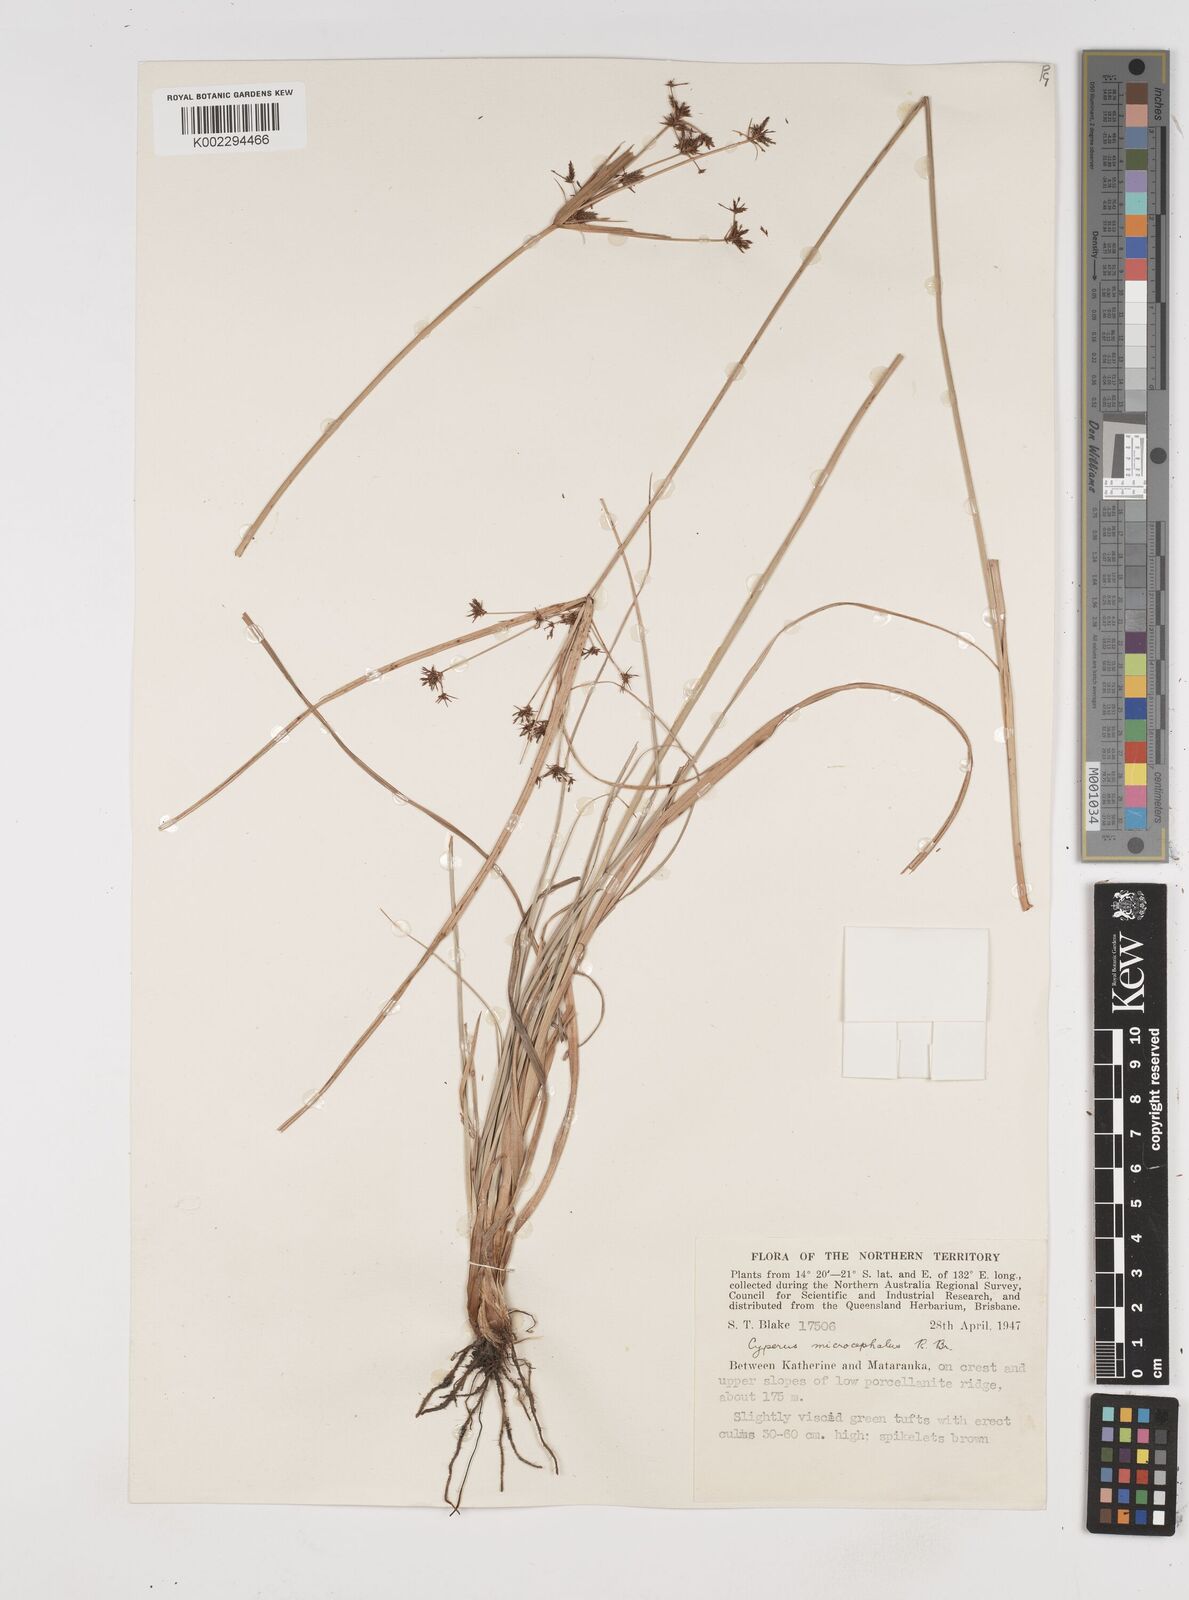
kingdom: Plantae
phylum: Tracheophyta
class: Liliopsida
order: Poales
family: Cyperaceae
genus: Cyperus
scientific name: Cyperus microcephalus
